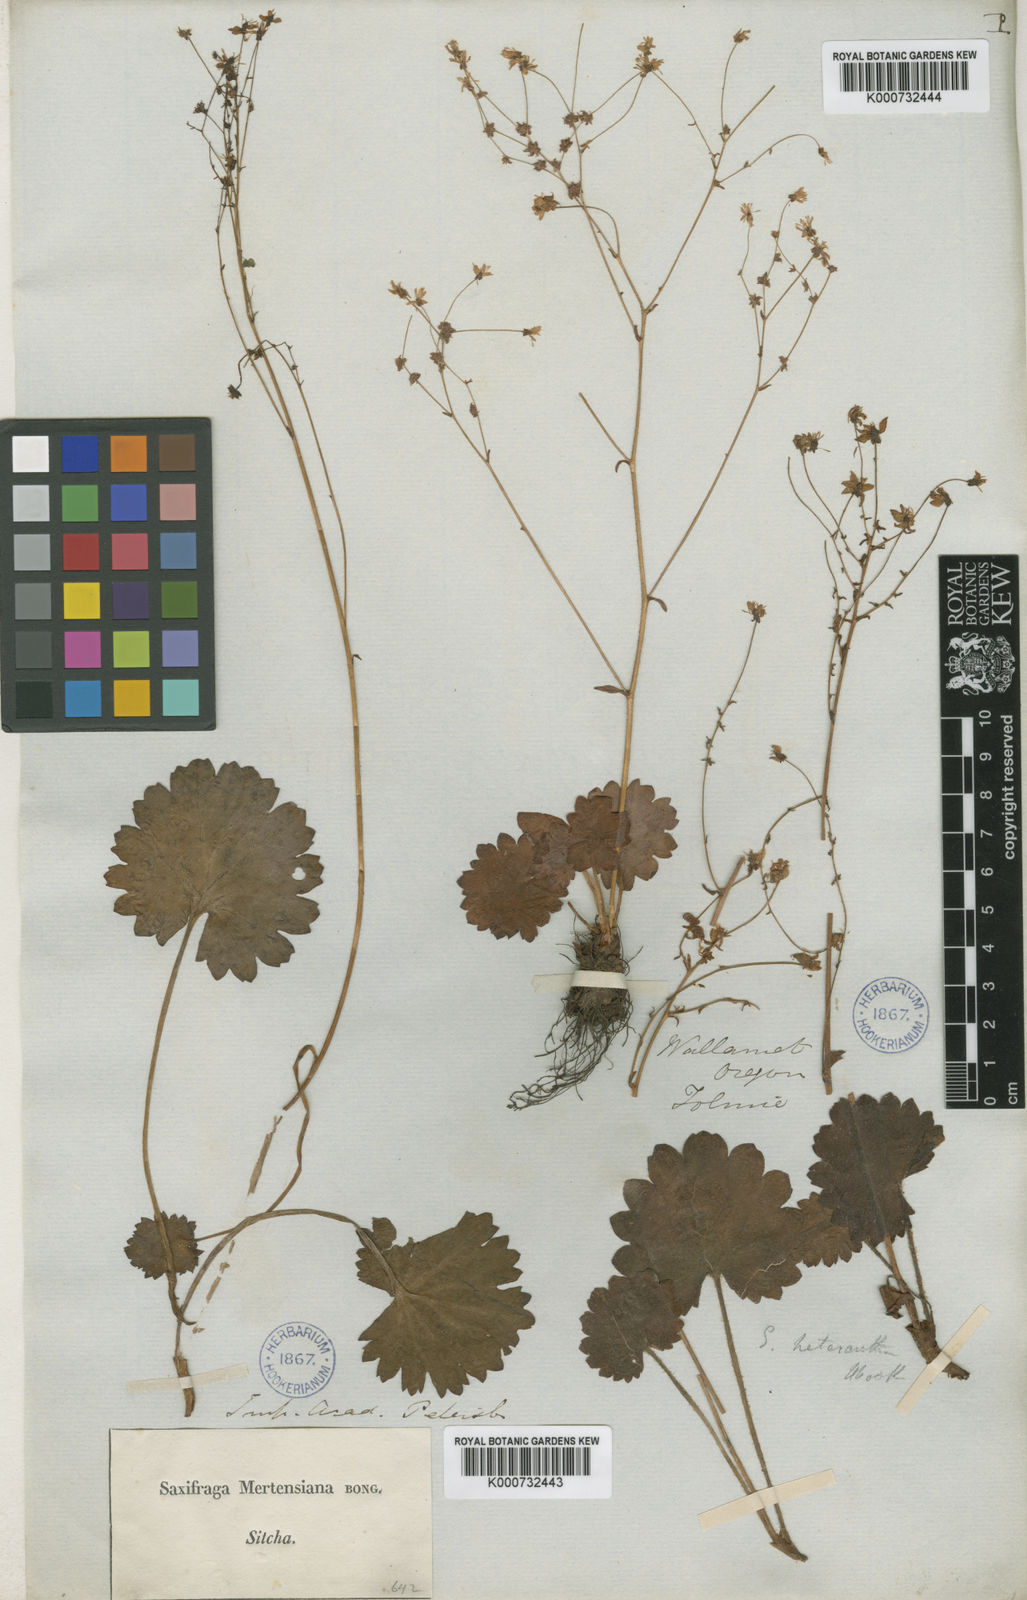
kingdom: Plantae
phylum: Tracheophyta
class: Magnoliopsida
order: Saxifragales
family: Saxifragaceae
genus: Micranthes
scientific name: Micranthes mertensiana
